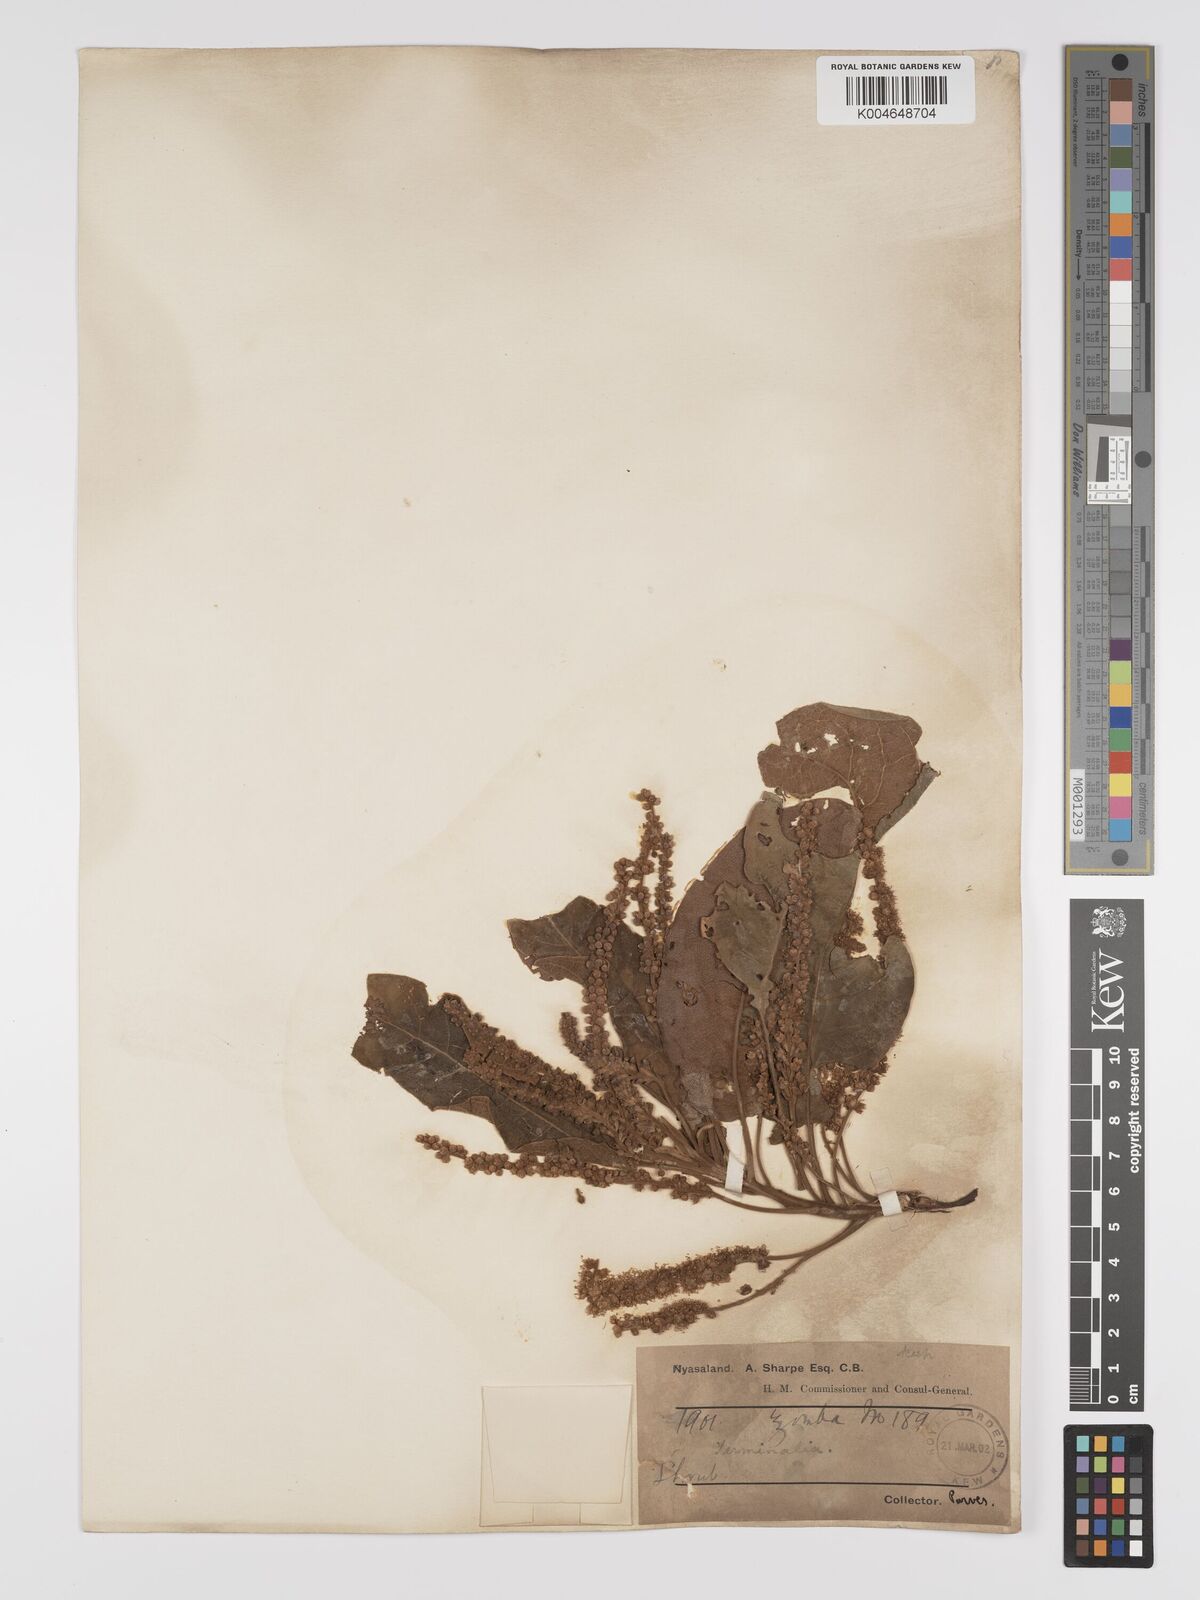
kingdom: Plantae
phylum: Tracheophyta
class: Magnoliopsida
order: Myrtales
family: Combretaceae
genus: Terminalia
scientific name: Terminalia stenostachya
